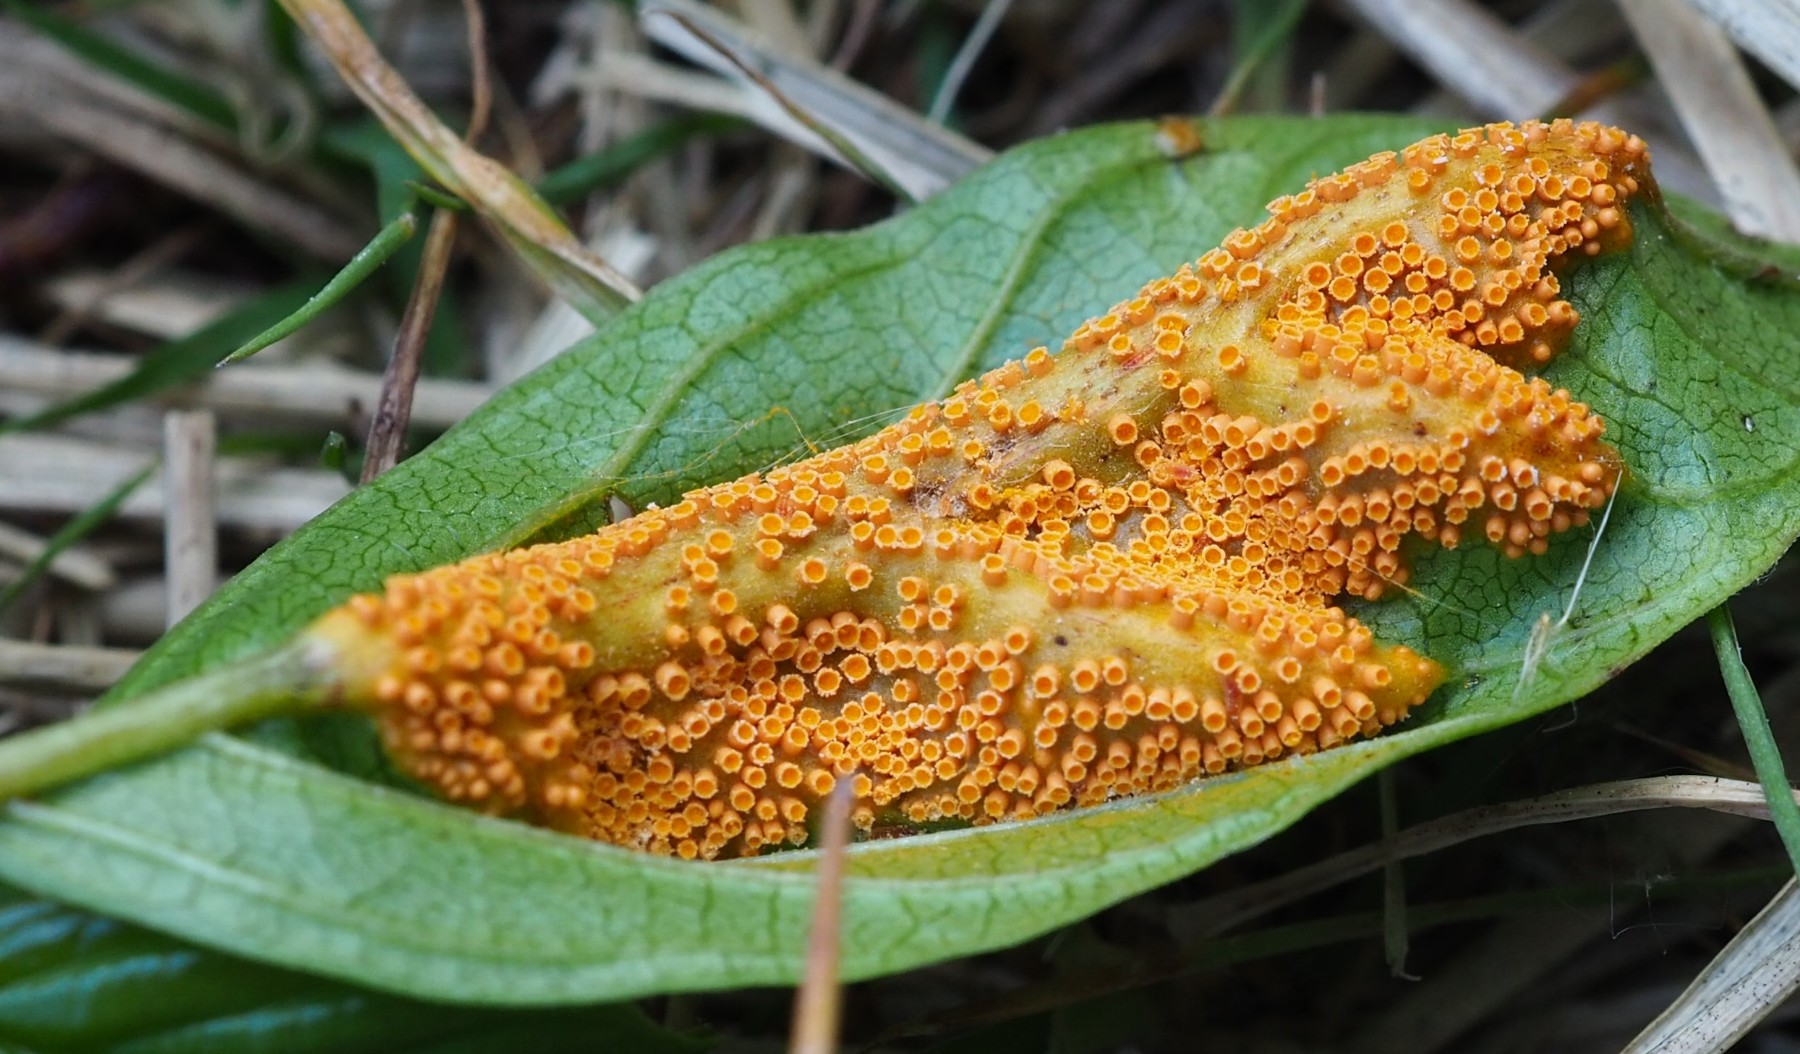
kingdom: Fungi
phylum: Basidiomycota
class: Pucciniomycetes
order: Pucciniales
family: Pucciniaceae
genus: Puccinia
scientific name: Puccinia coronata
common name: Crown rust
